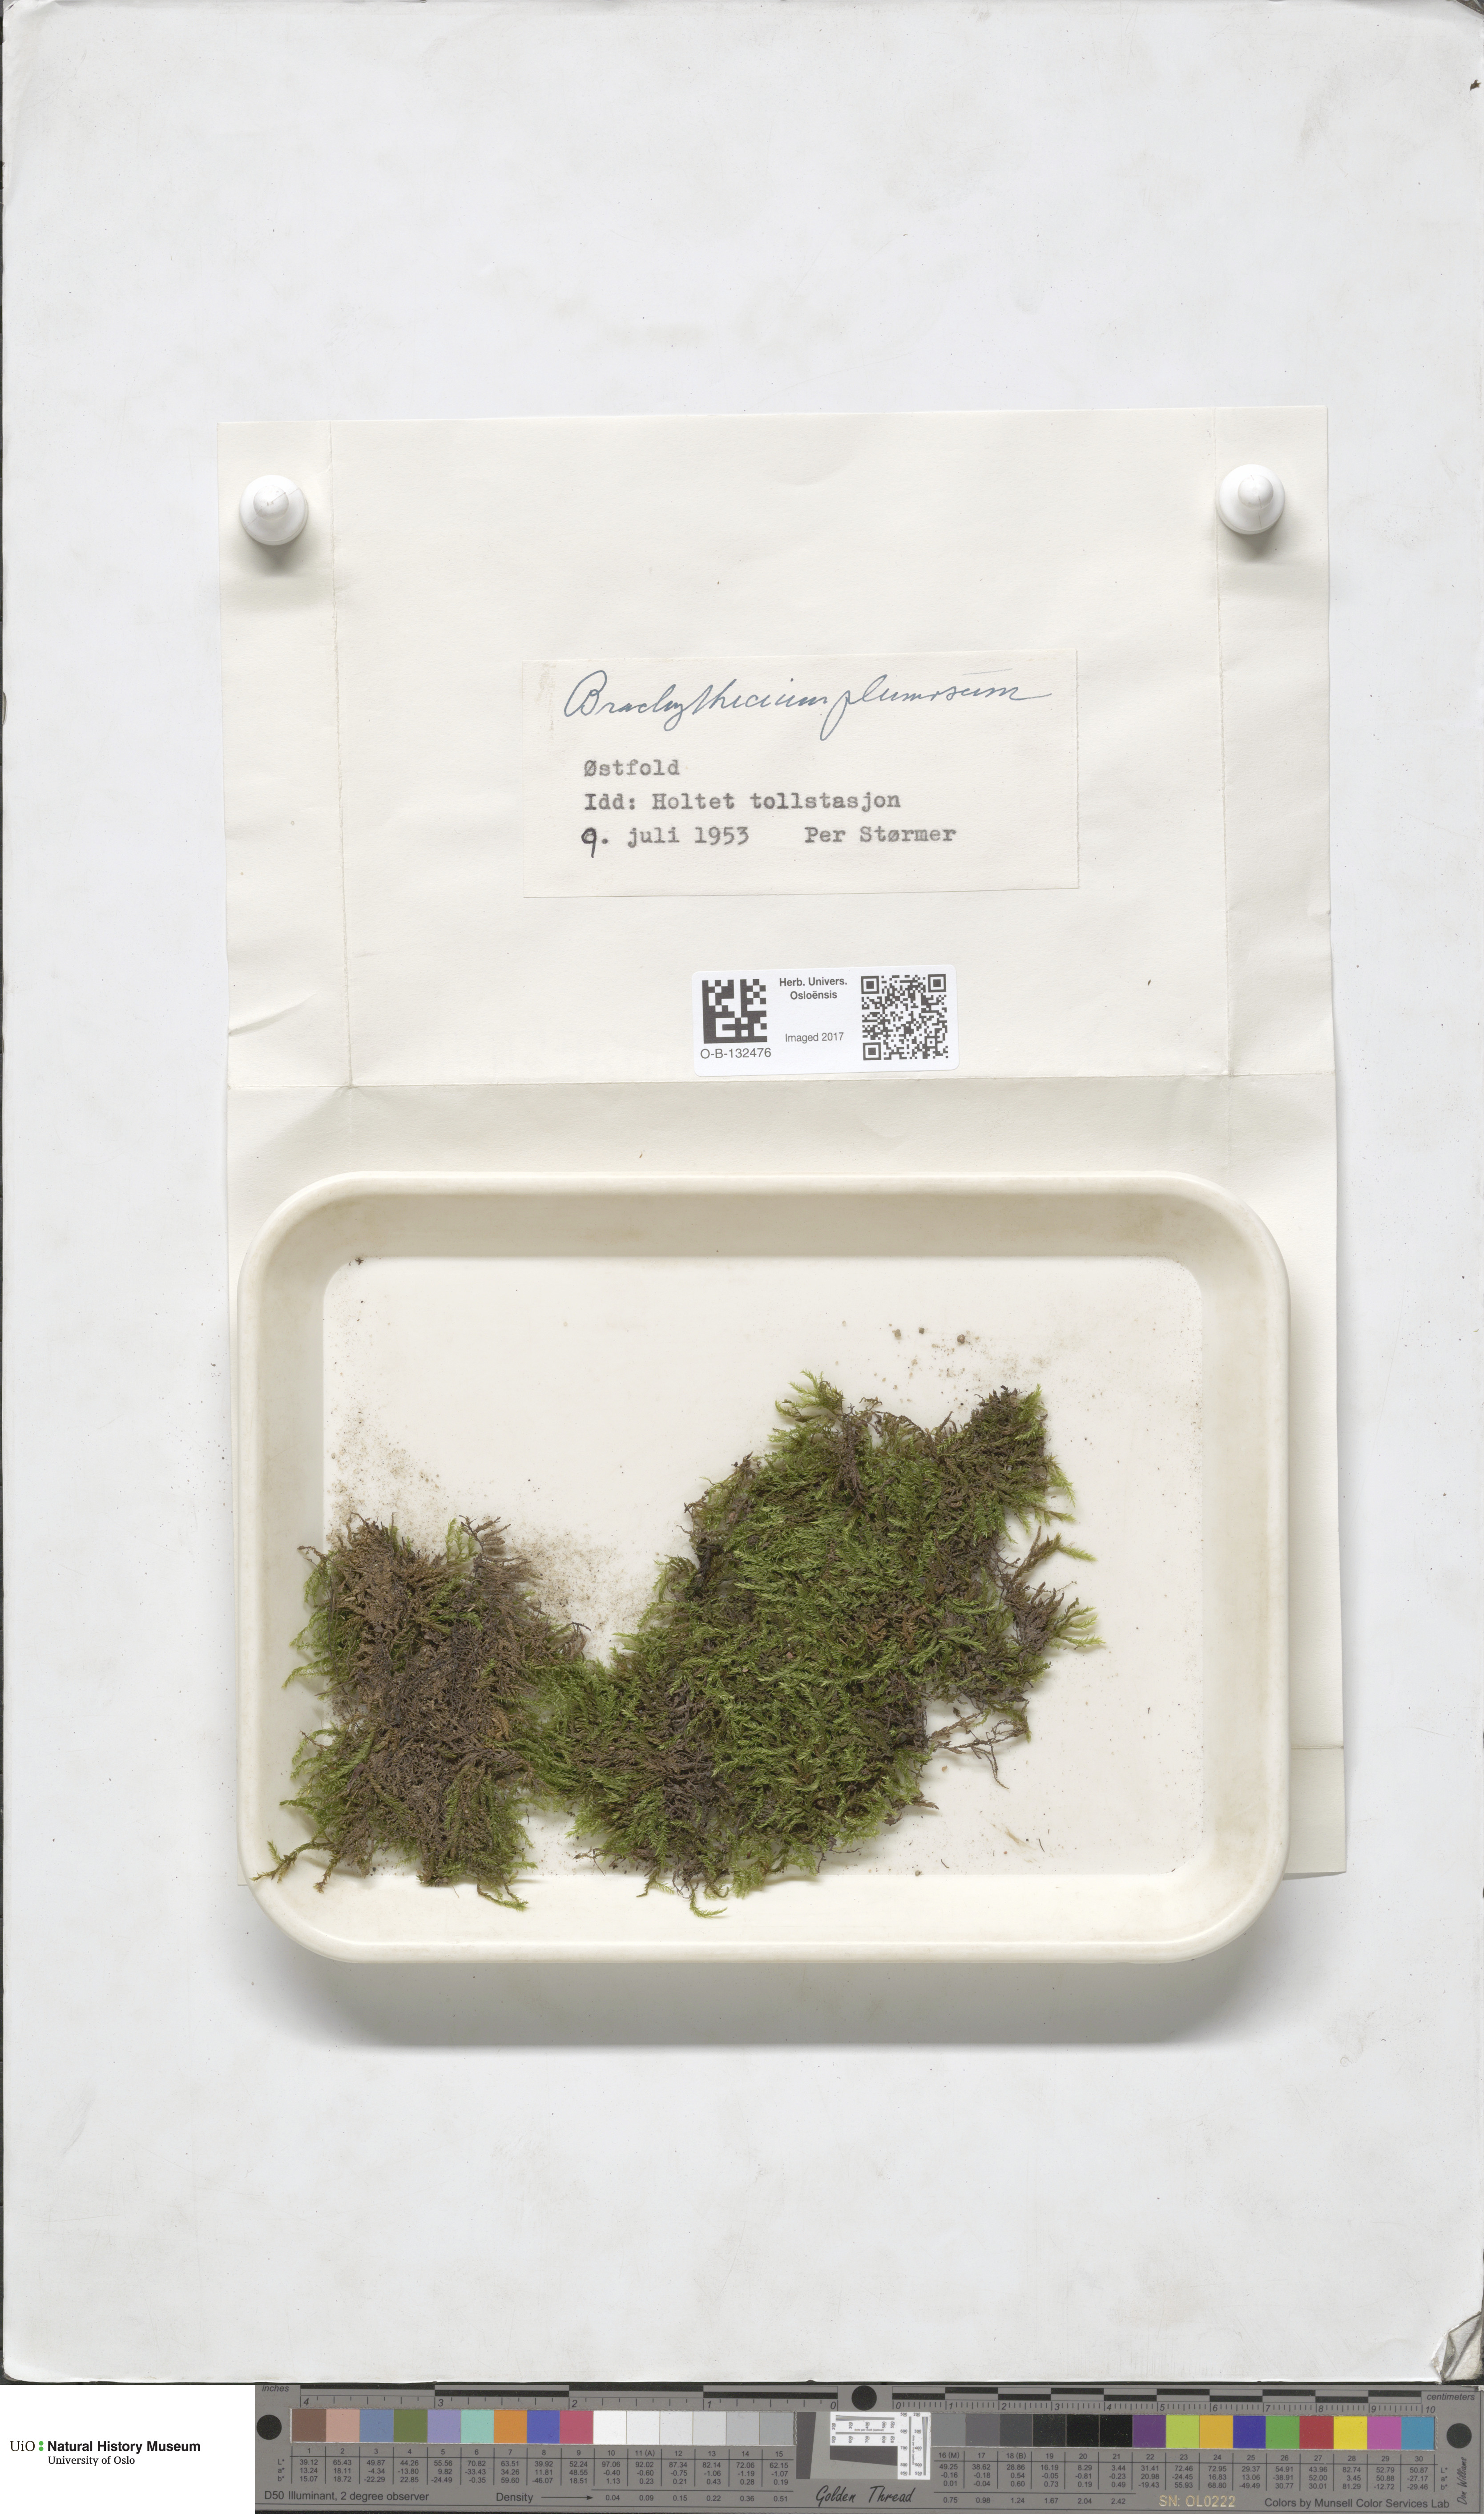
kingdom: Plantae
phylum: Bryophyta
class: Bryopsida
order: Hypnales
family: Brachytheciaceae
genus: Sciuro-hypnum
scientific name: Sciuro-hypnum plumosum
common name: Rusty feather-moss
